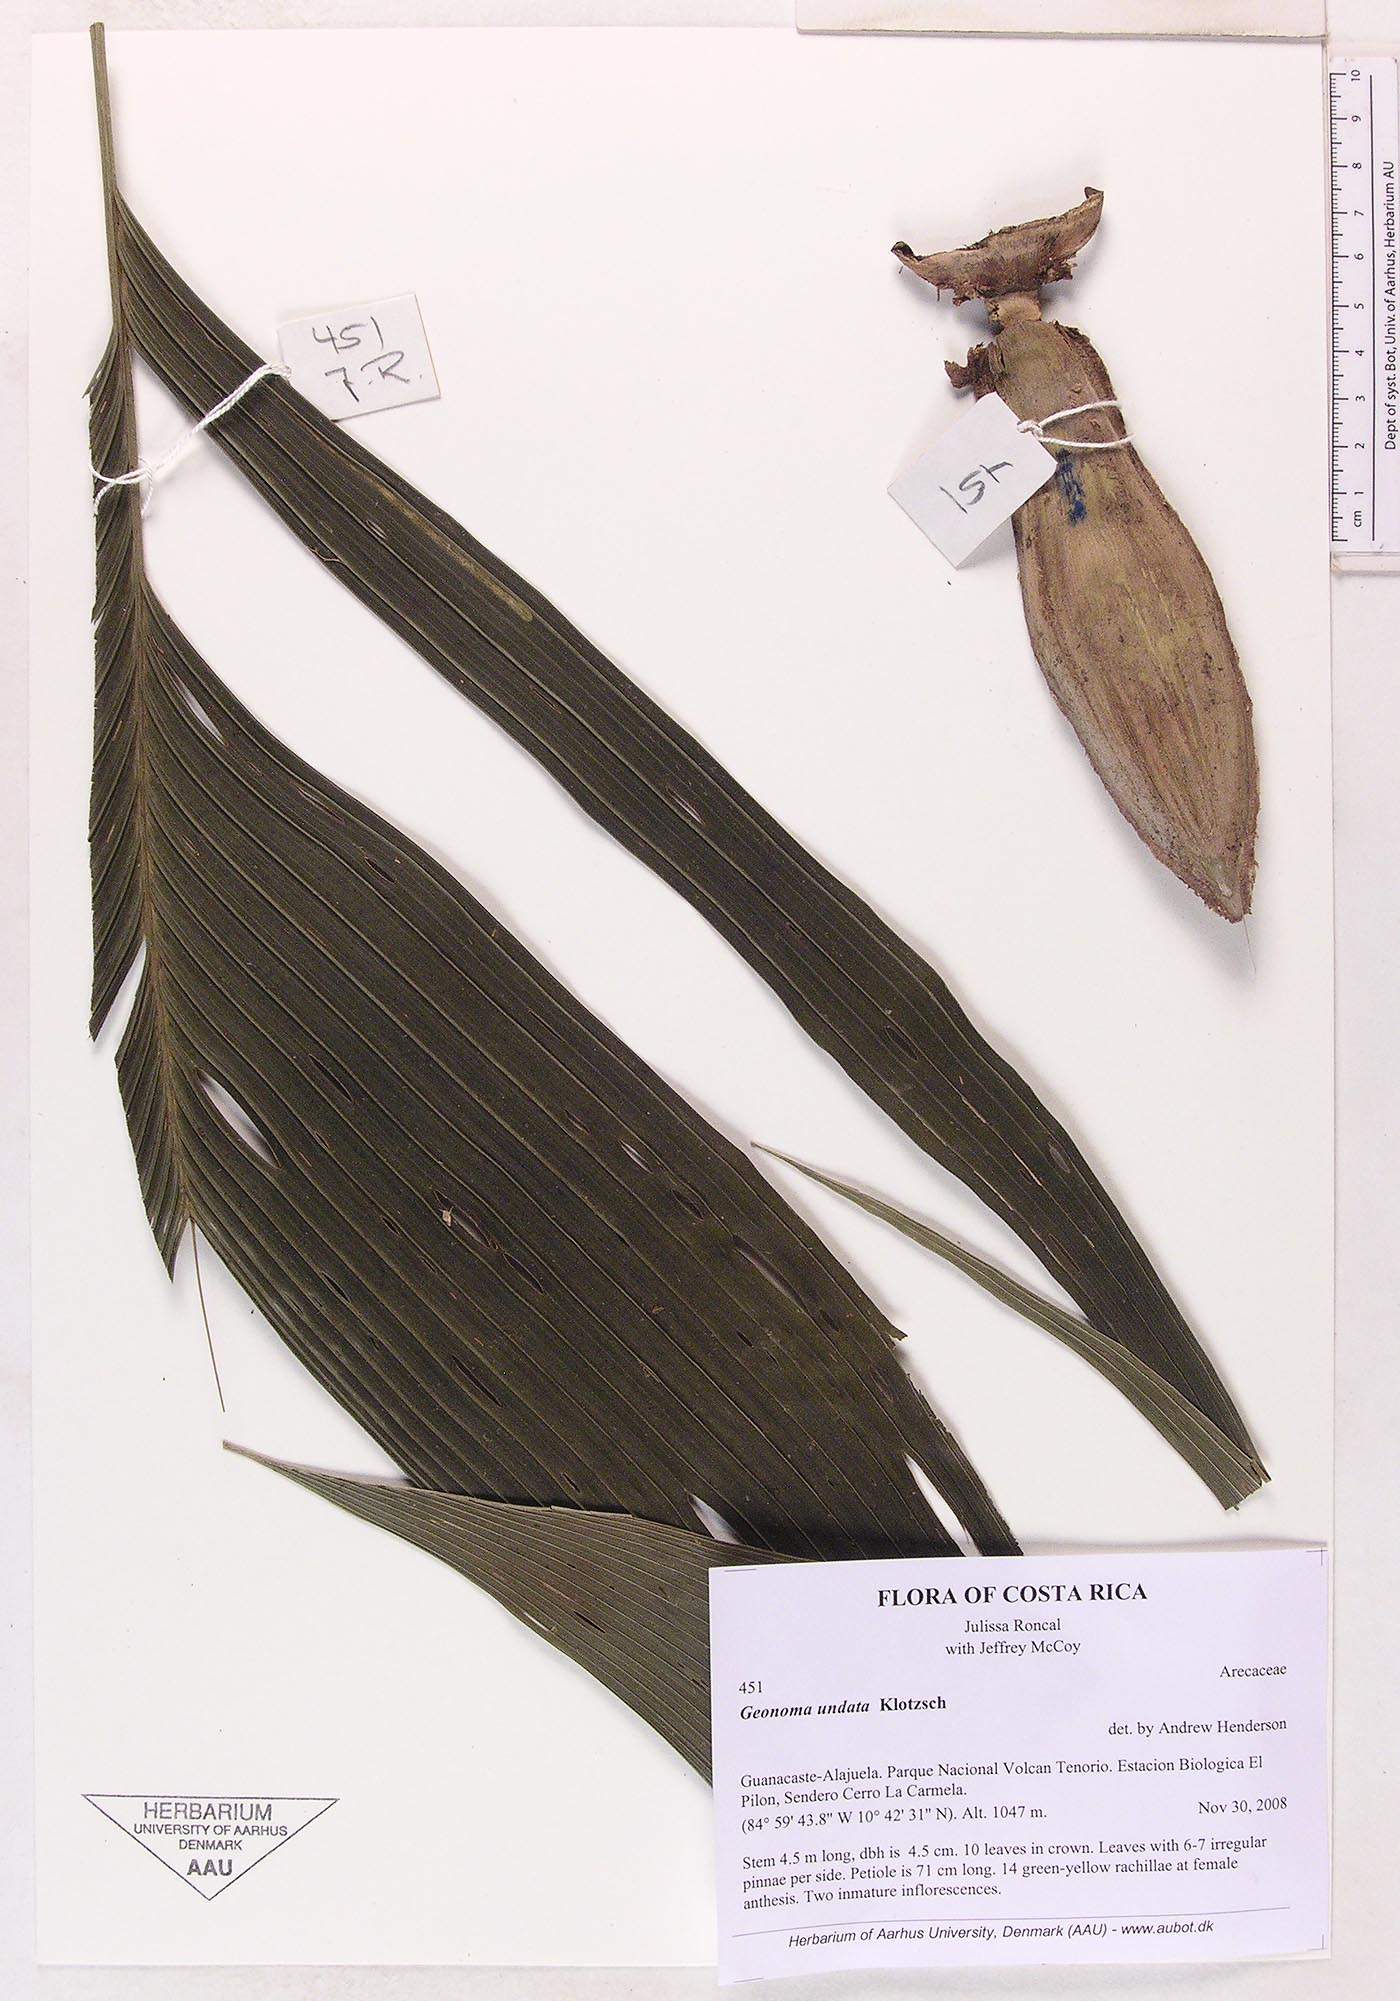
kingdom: Plantae
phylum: Tracheophyta
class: Liliopsida
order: Arecales
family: Arecaceae
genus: Geonoma
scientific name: Geonoma undata
